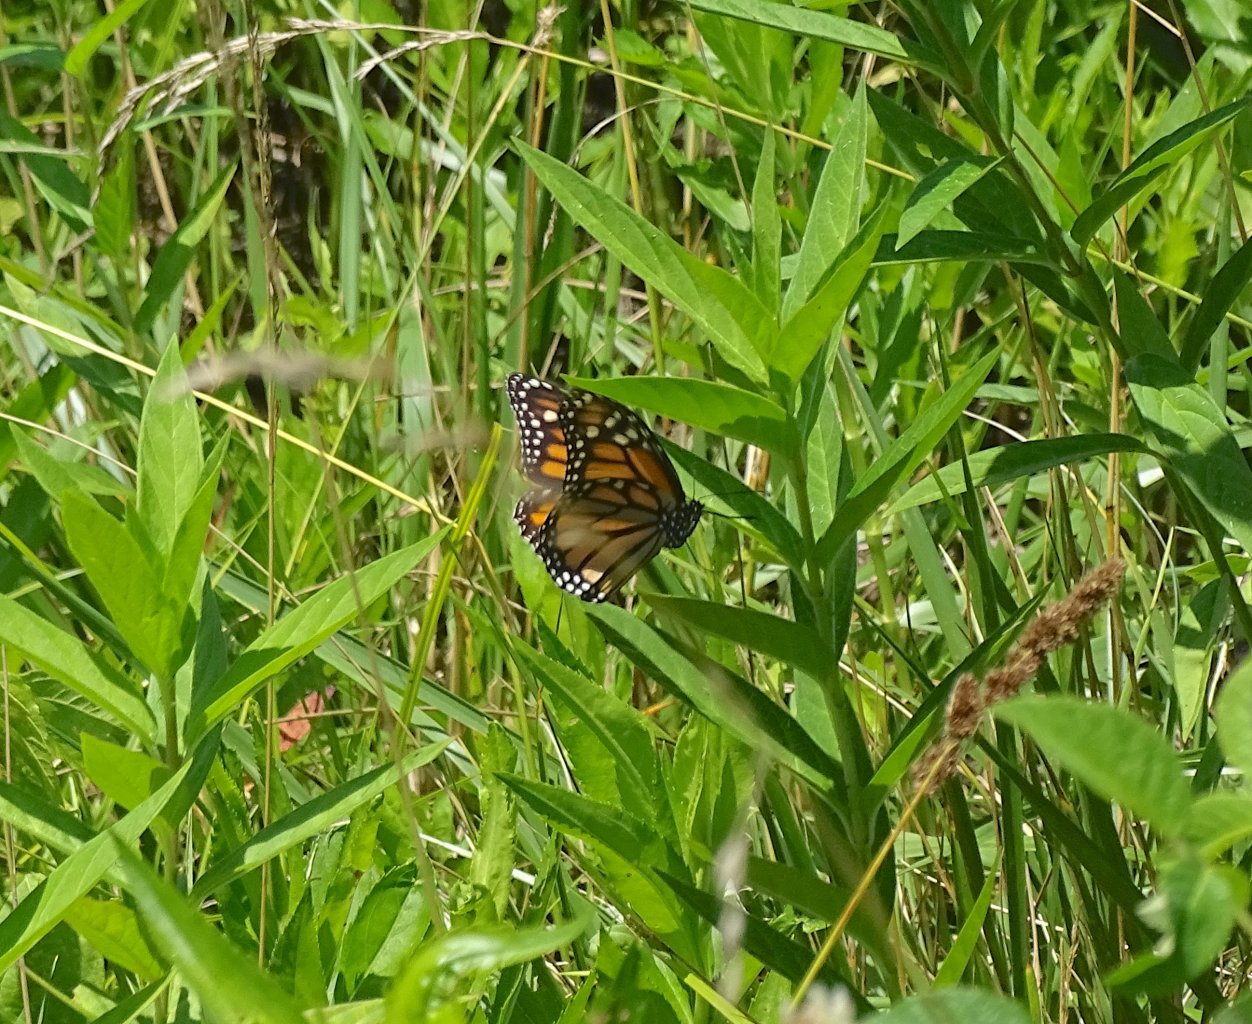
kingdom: Animalia
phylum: Arthropoda
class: Insecta
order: Lepidoptera
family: Nymphalidae
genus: Danaus
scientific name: Danaus plexippus
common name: Monarch
